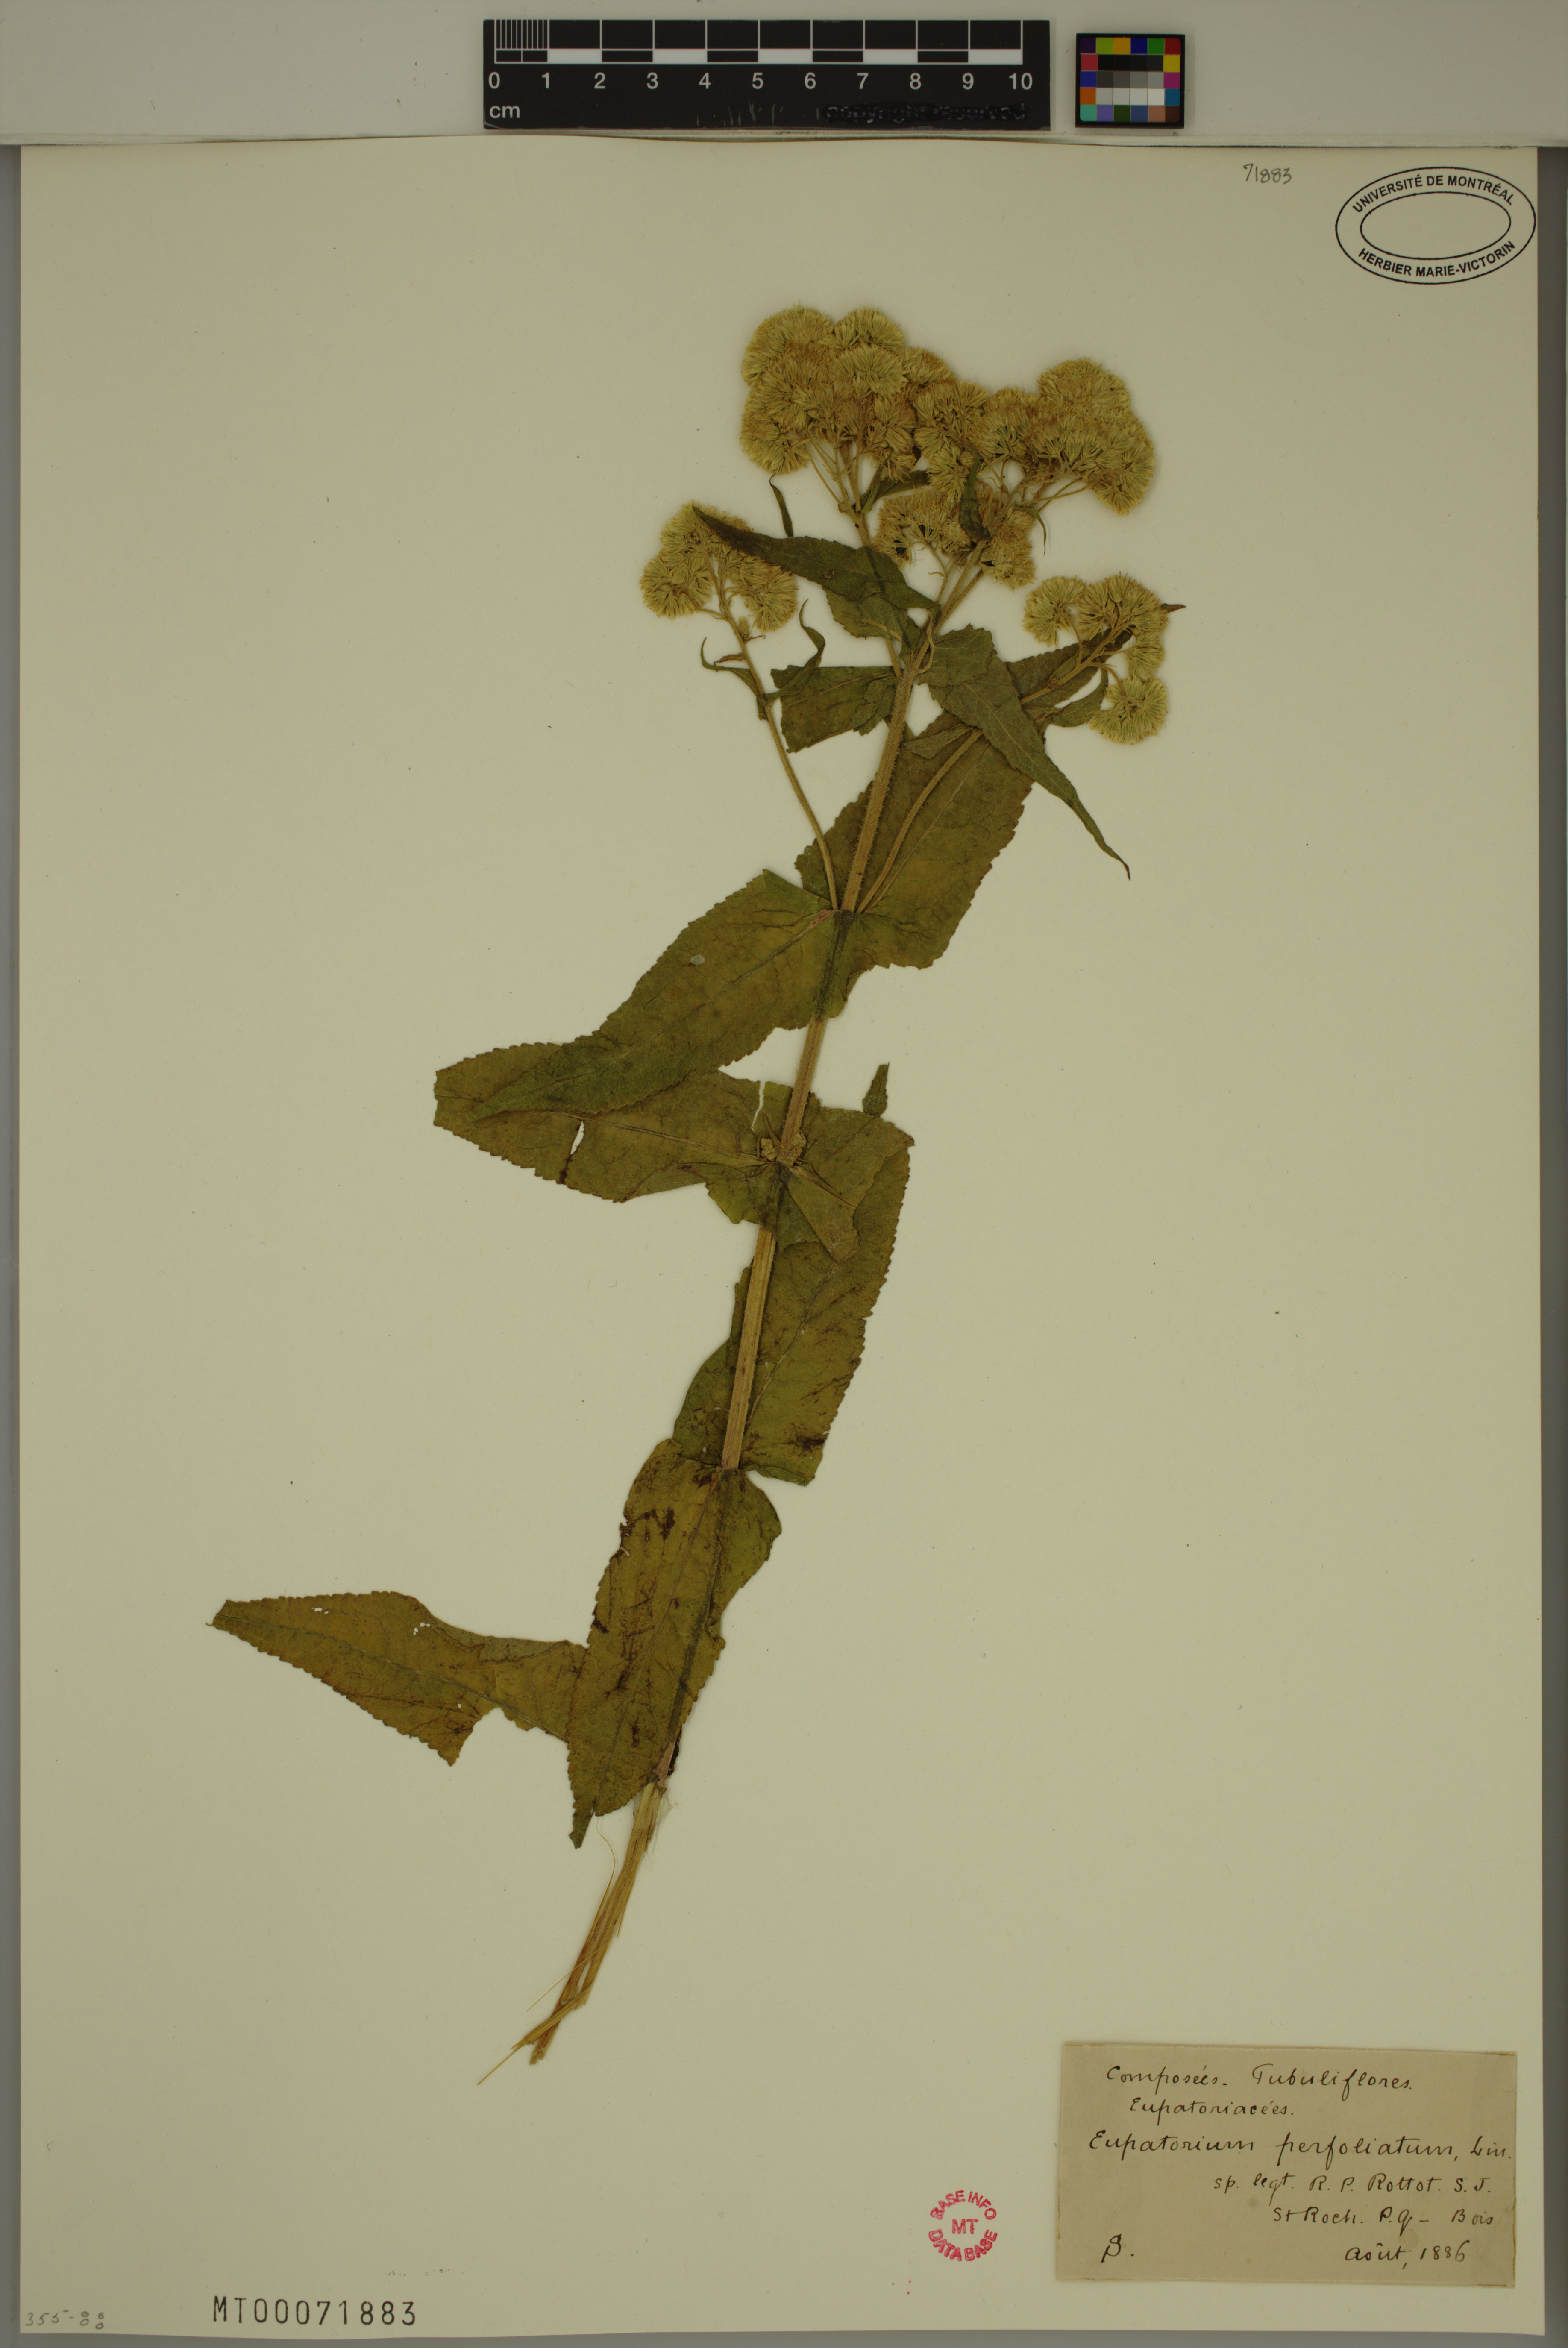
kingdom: Plantae
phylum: Tracheophyta
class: Magnoliopsida
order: Asterales
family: Asteraceae
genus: Eupatorium
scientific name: Eupatorium perfoliatum
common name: Boneset
